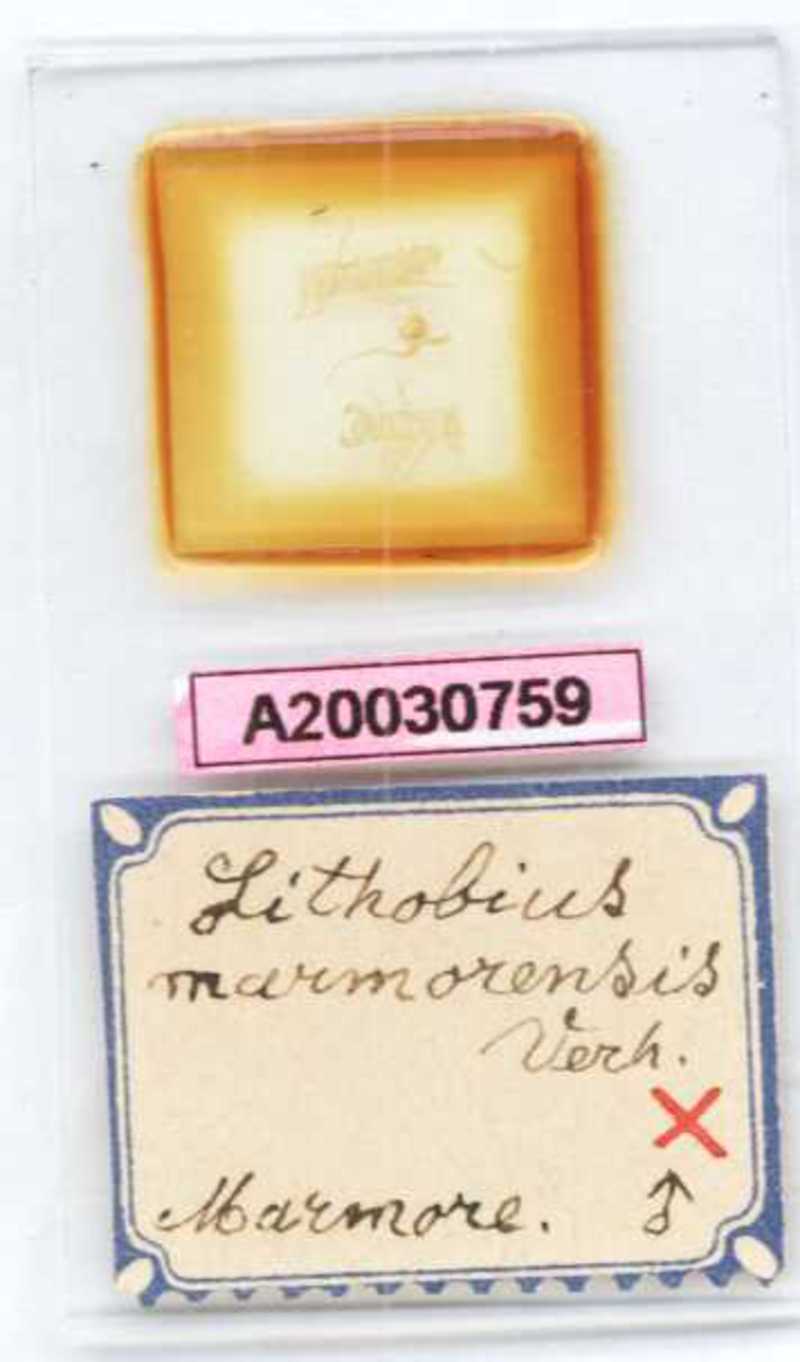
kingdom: Animalia
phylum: Arthropoda
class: Chilopoda
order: Lithobiomorpha
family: Lithobiidae
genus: Lithobius
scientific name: Lithobius dahlii
